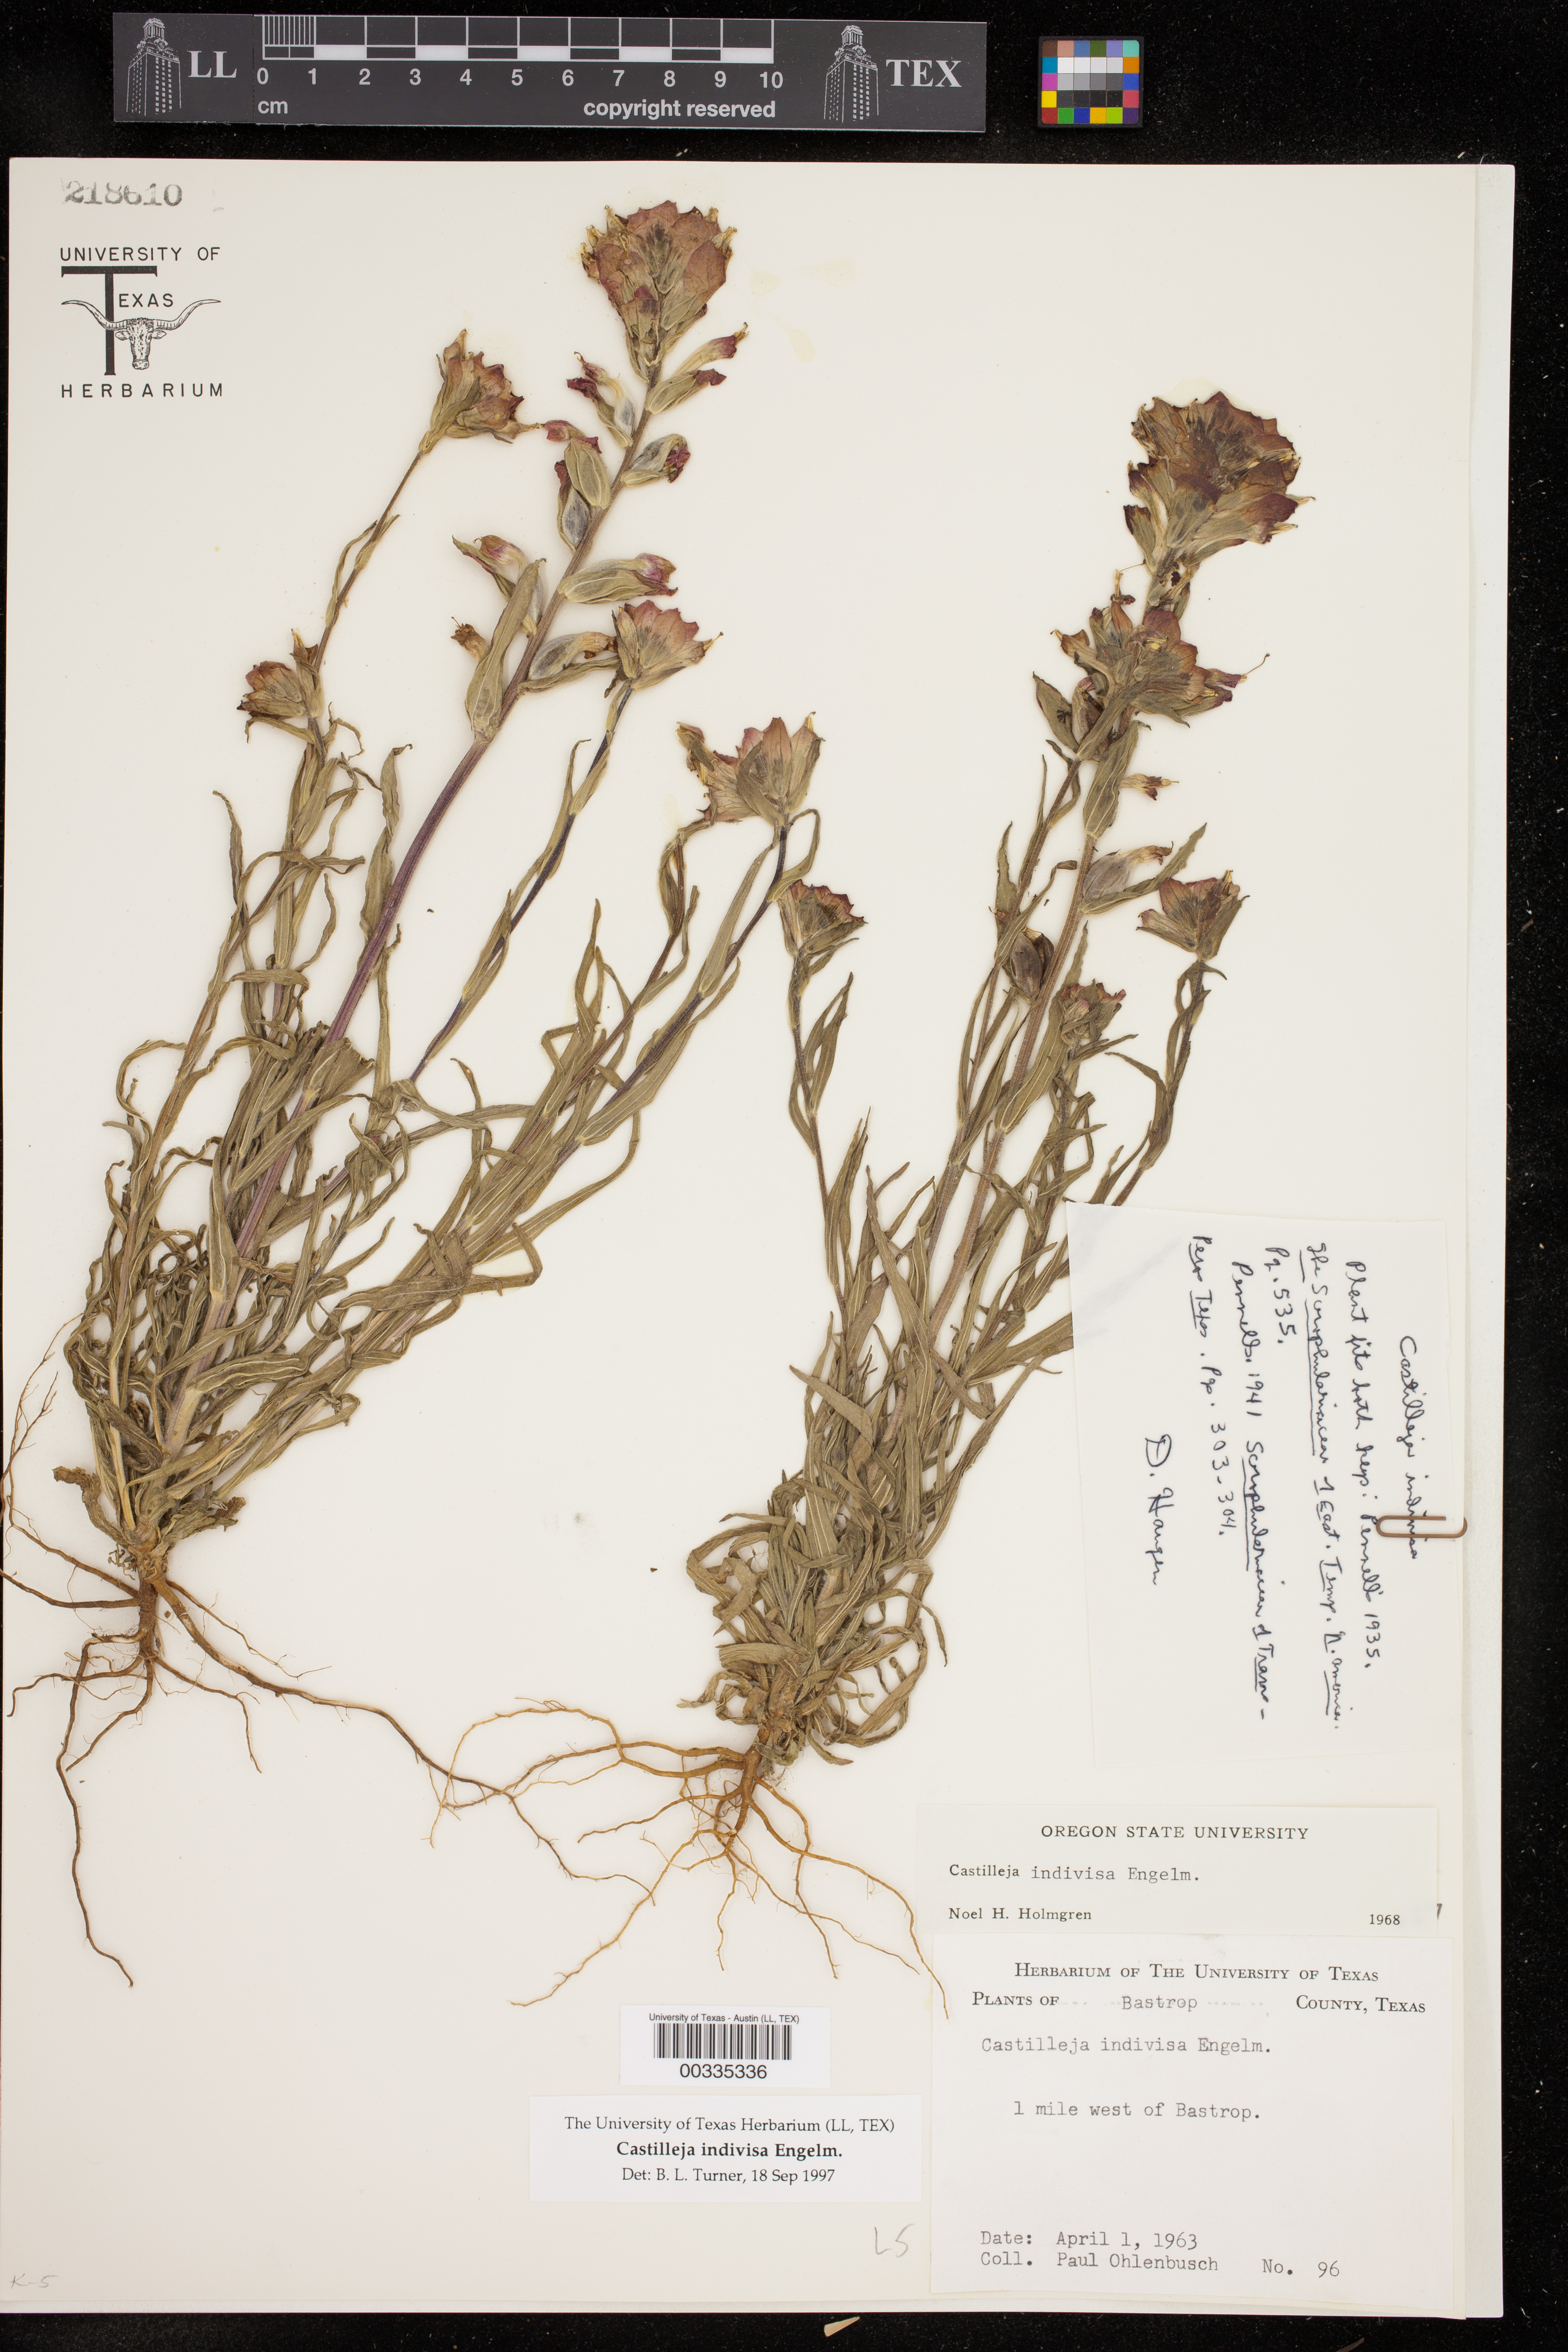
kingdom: Plantae
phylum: Tracheophyta
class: Magnoliopsida
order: Lamiales
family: Orobanchaceae
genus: Castilleja
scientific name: Castilleja indivisa
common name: Texas paintbrush
